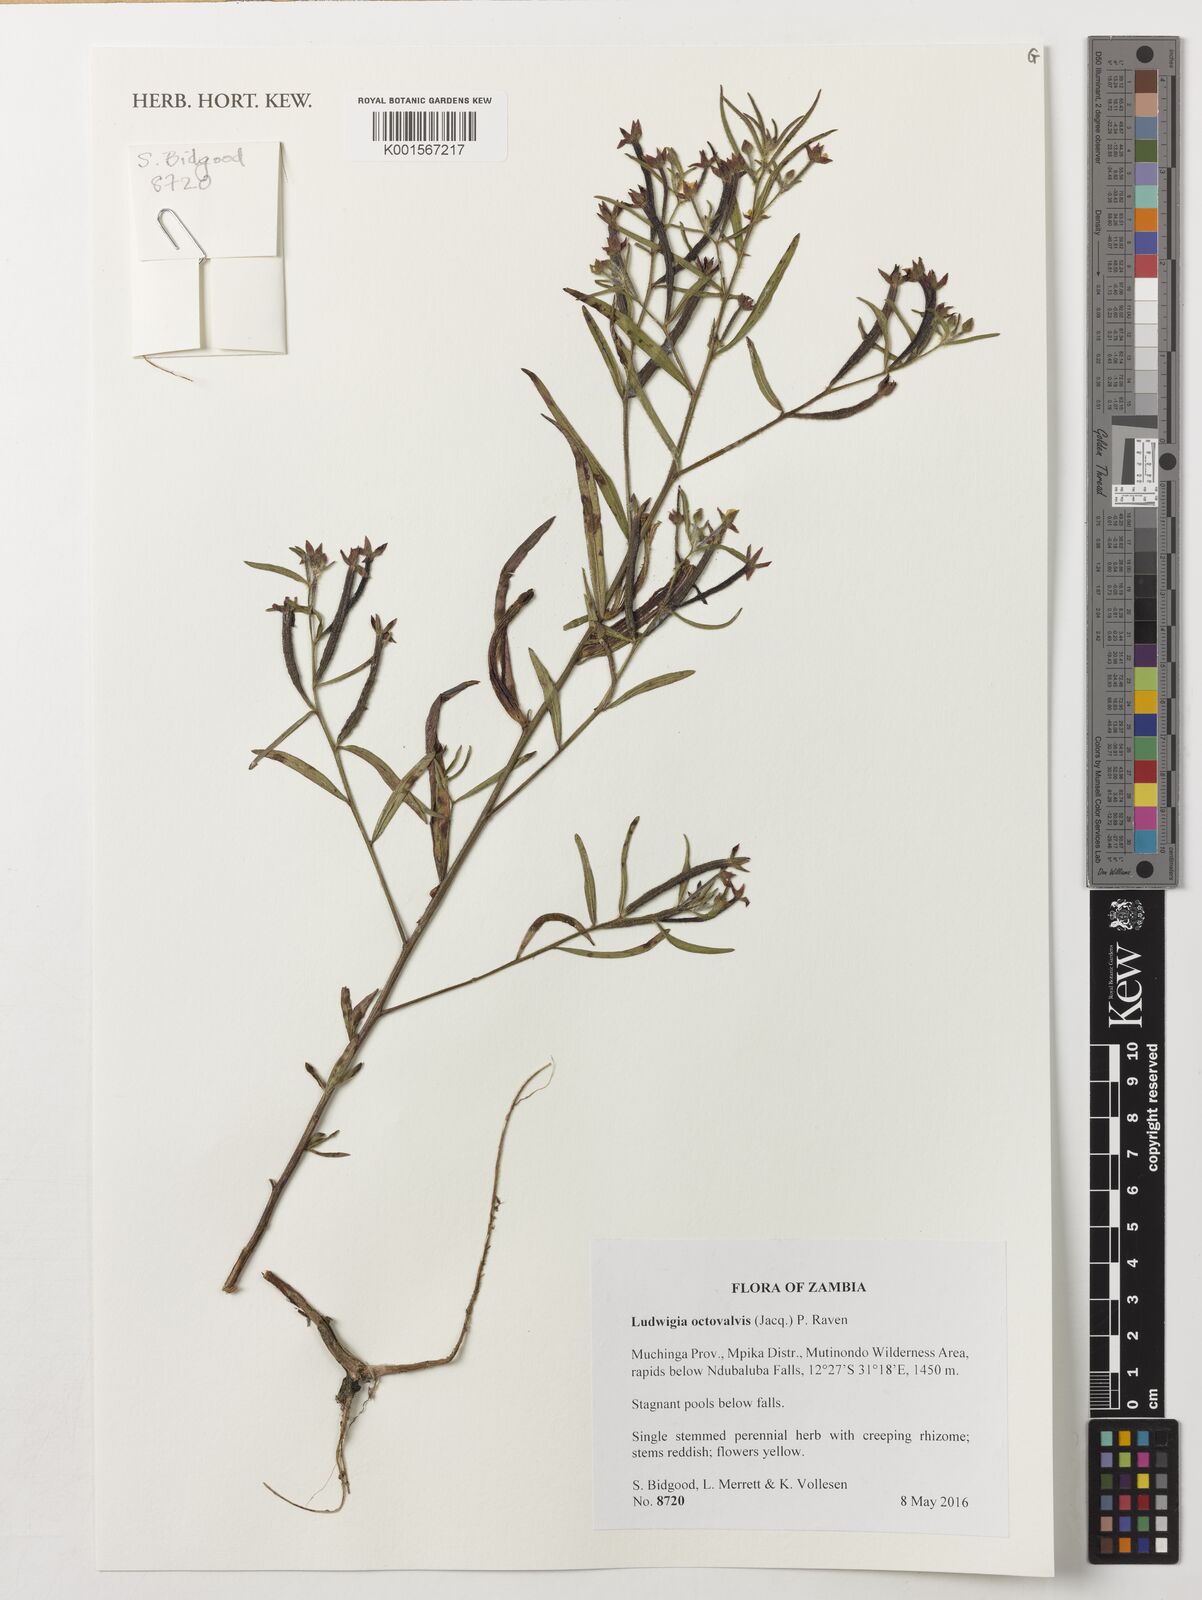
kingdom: Plantae
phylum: Tracheophyta
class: Magnoliopsida
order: Myrtales
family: Onagraceae
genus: Ludwigia
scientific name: Ludwigia octovalvis
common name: Water-primrose
